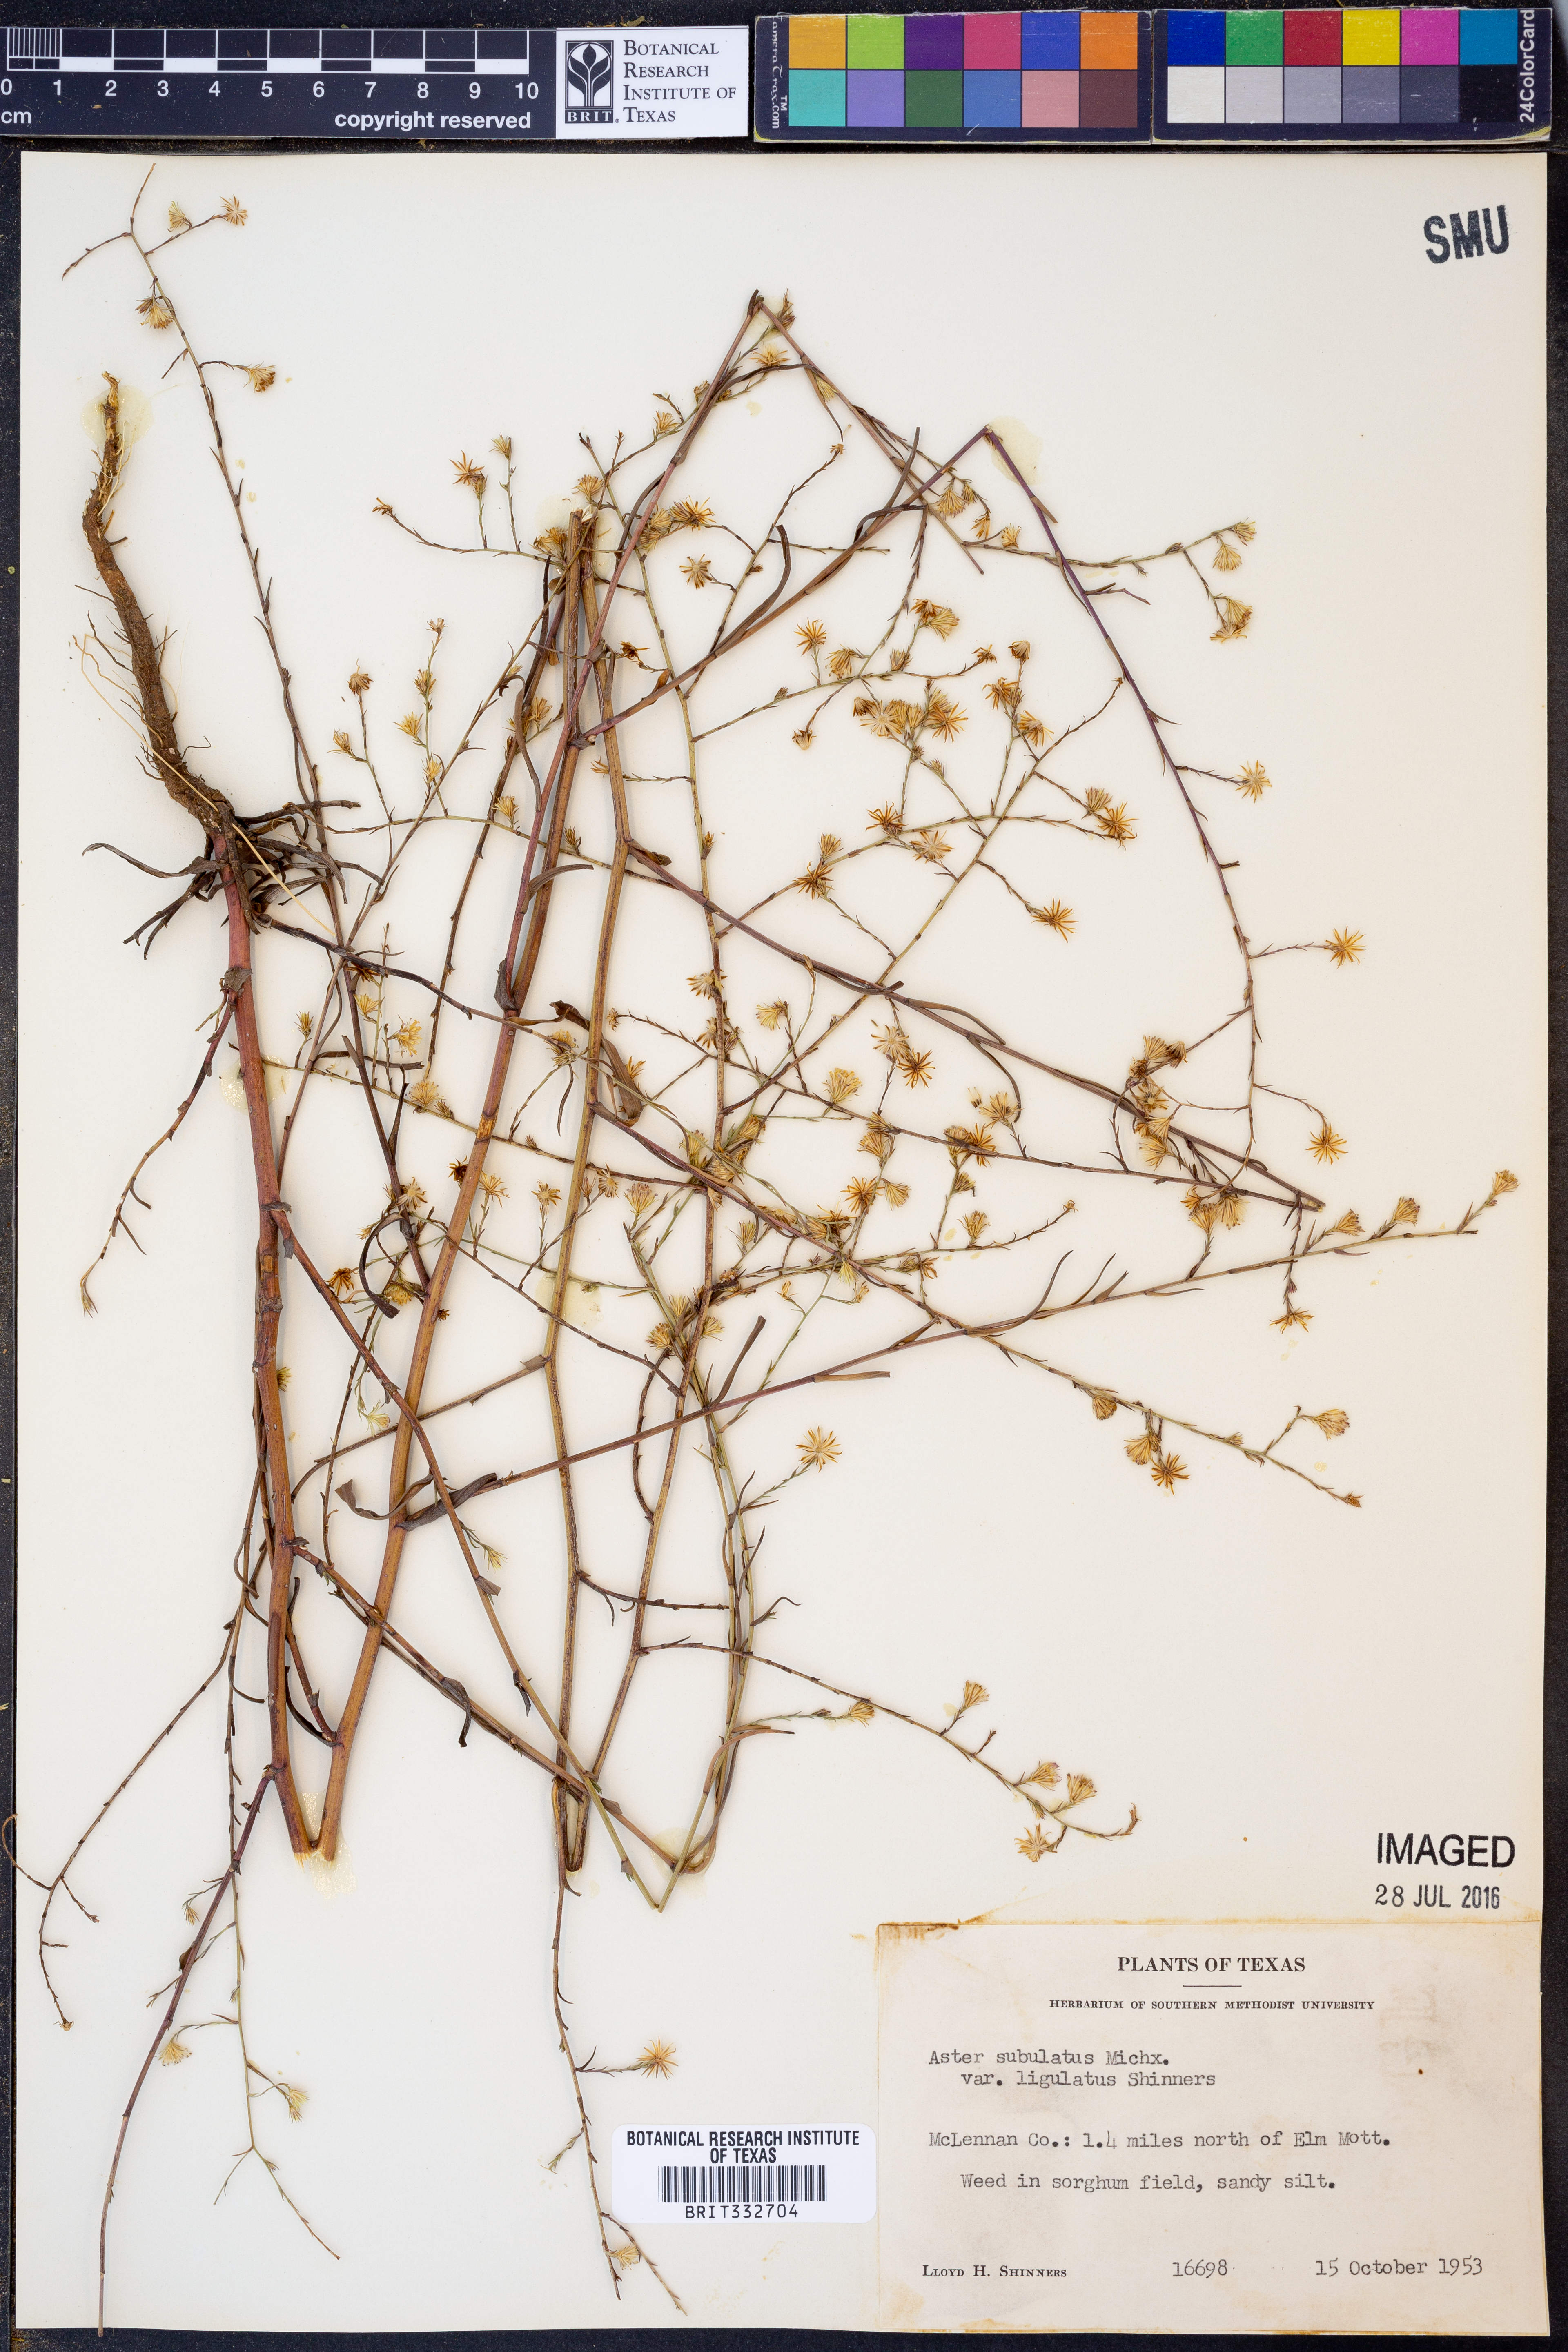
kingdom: Plantae
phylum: Tracheophyta
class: Magnoliopsida
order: Asterales
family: Asteraceae
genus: Symphyotrichum
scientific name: Symphyotrichum subulatum
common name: Annual saltmarsh aster
